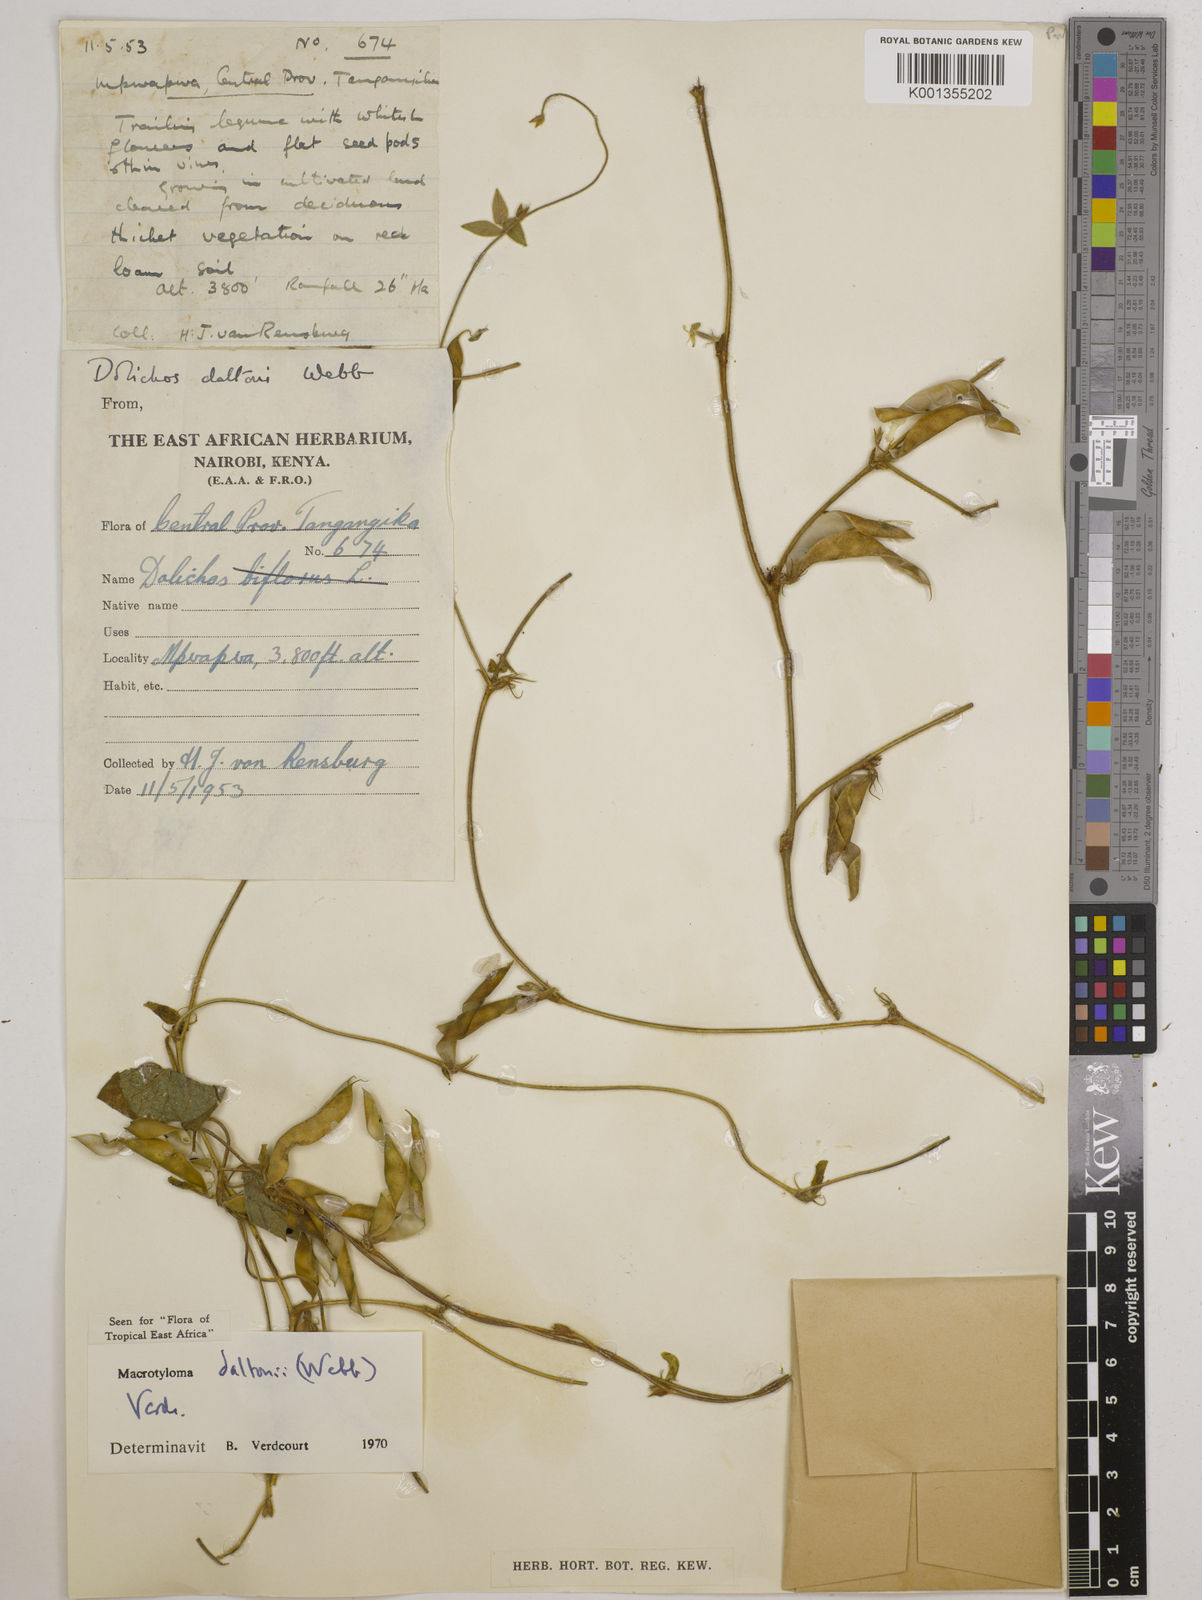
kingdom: Plantae
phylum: Tracheophyta
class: Magnoliopsida
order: Fabales
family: Fabaceae
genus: Macrotyloma
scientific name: Macrotyloma daltonii
